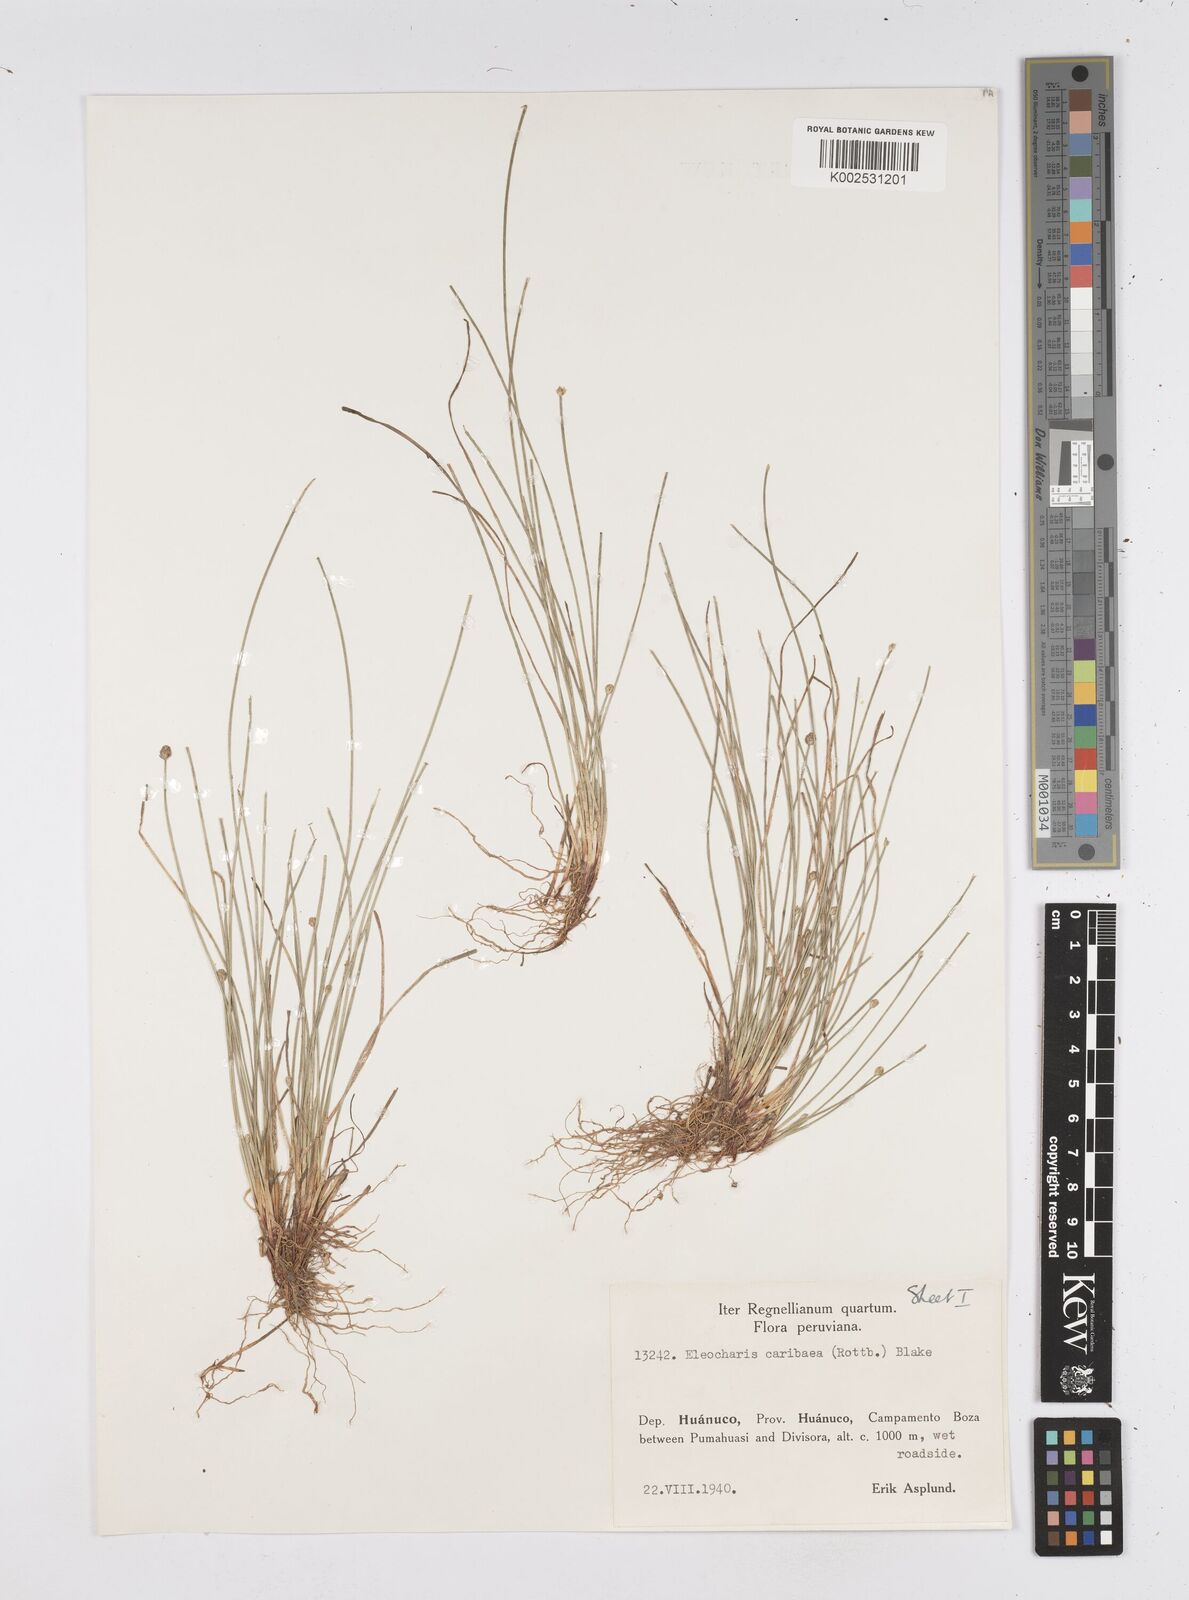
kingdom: Plantae
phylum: Tracheophyta
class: Liliopsida
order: Poales
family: Cyperaceae
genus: Eleocharis
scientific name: Eleocharis geniculata
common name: Canada spikesedge
